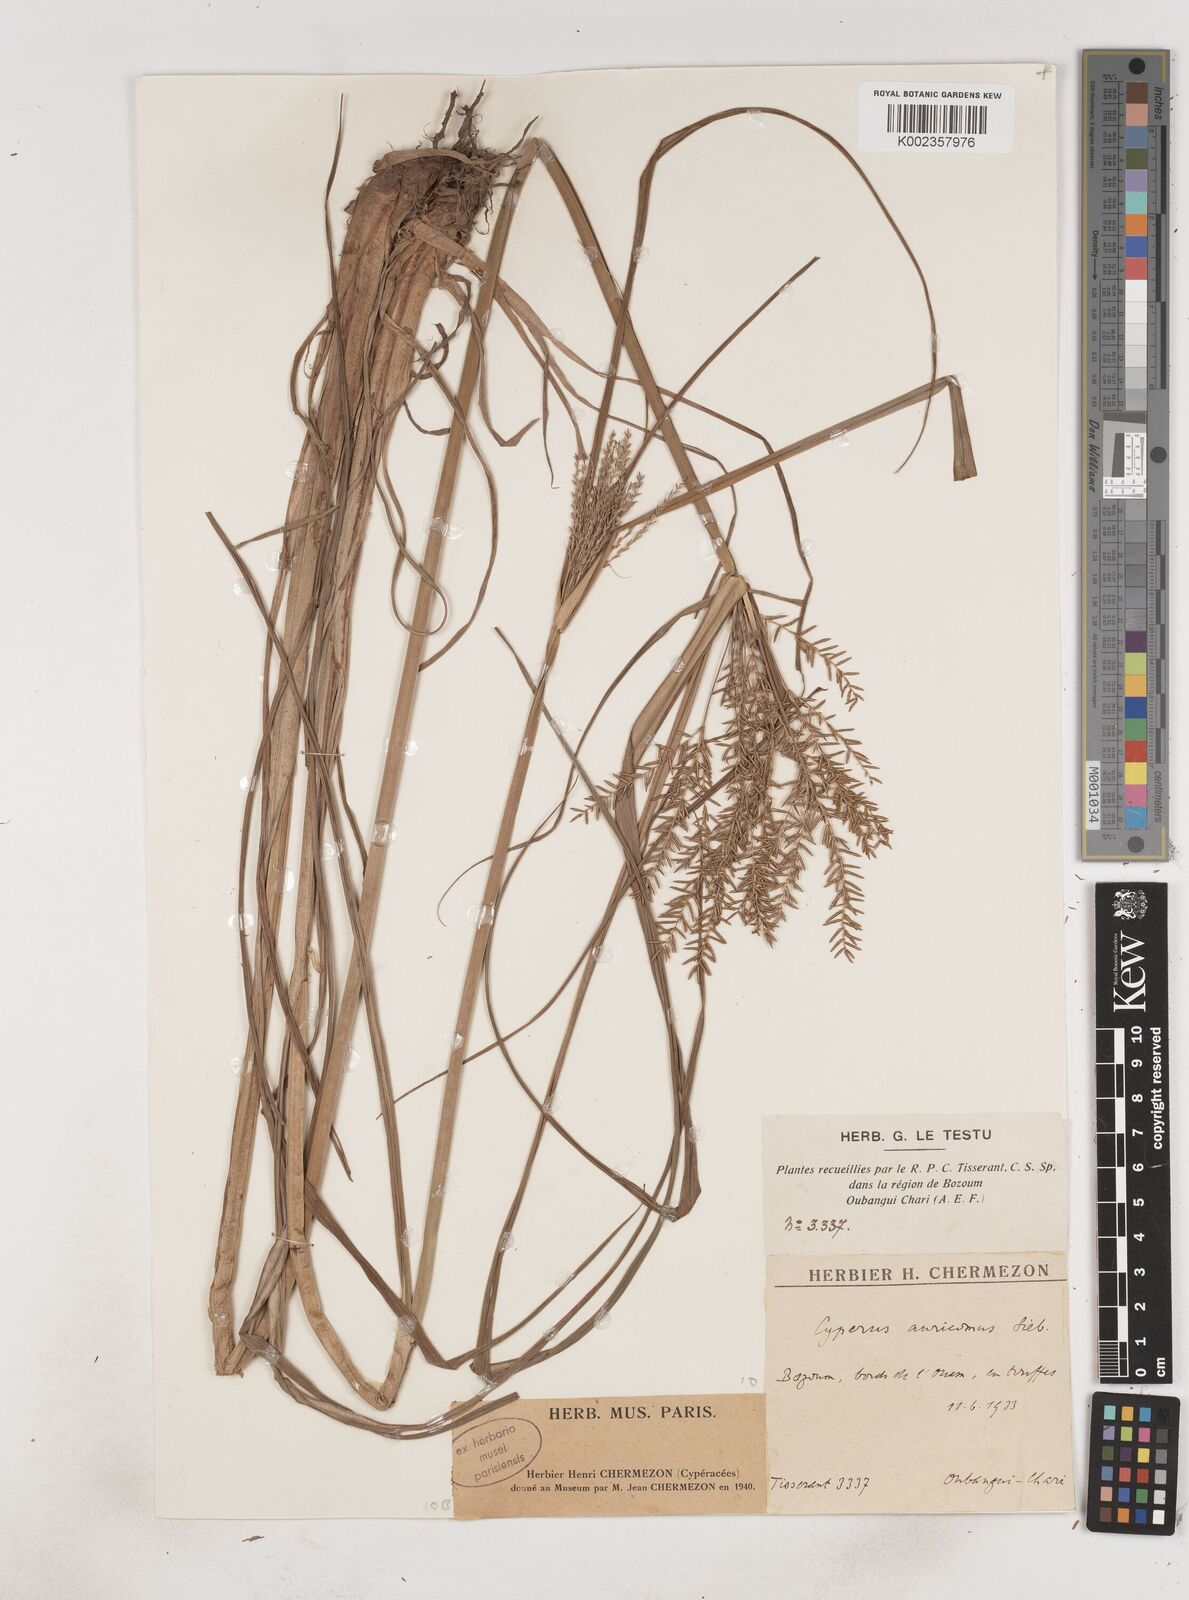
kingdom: Plantae
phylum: Tracheophyta
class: Liliopsida
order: Poales
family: Cyperaceae
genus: Cyperus
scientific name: Cyperus digitatus
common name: Finger flatsedge
